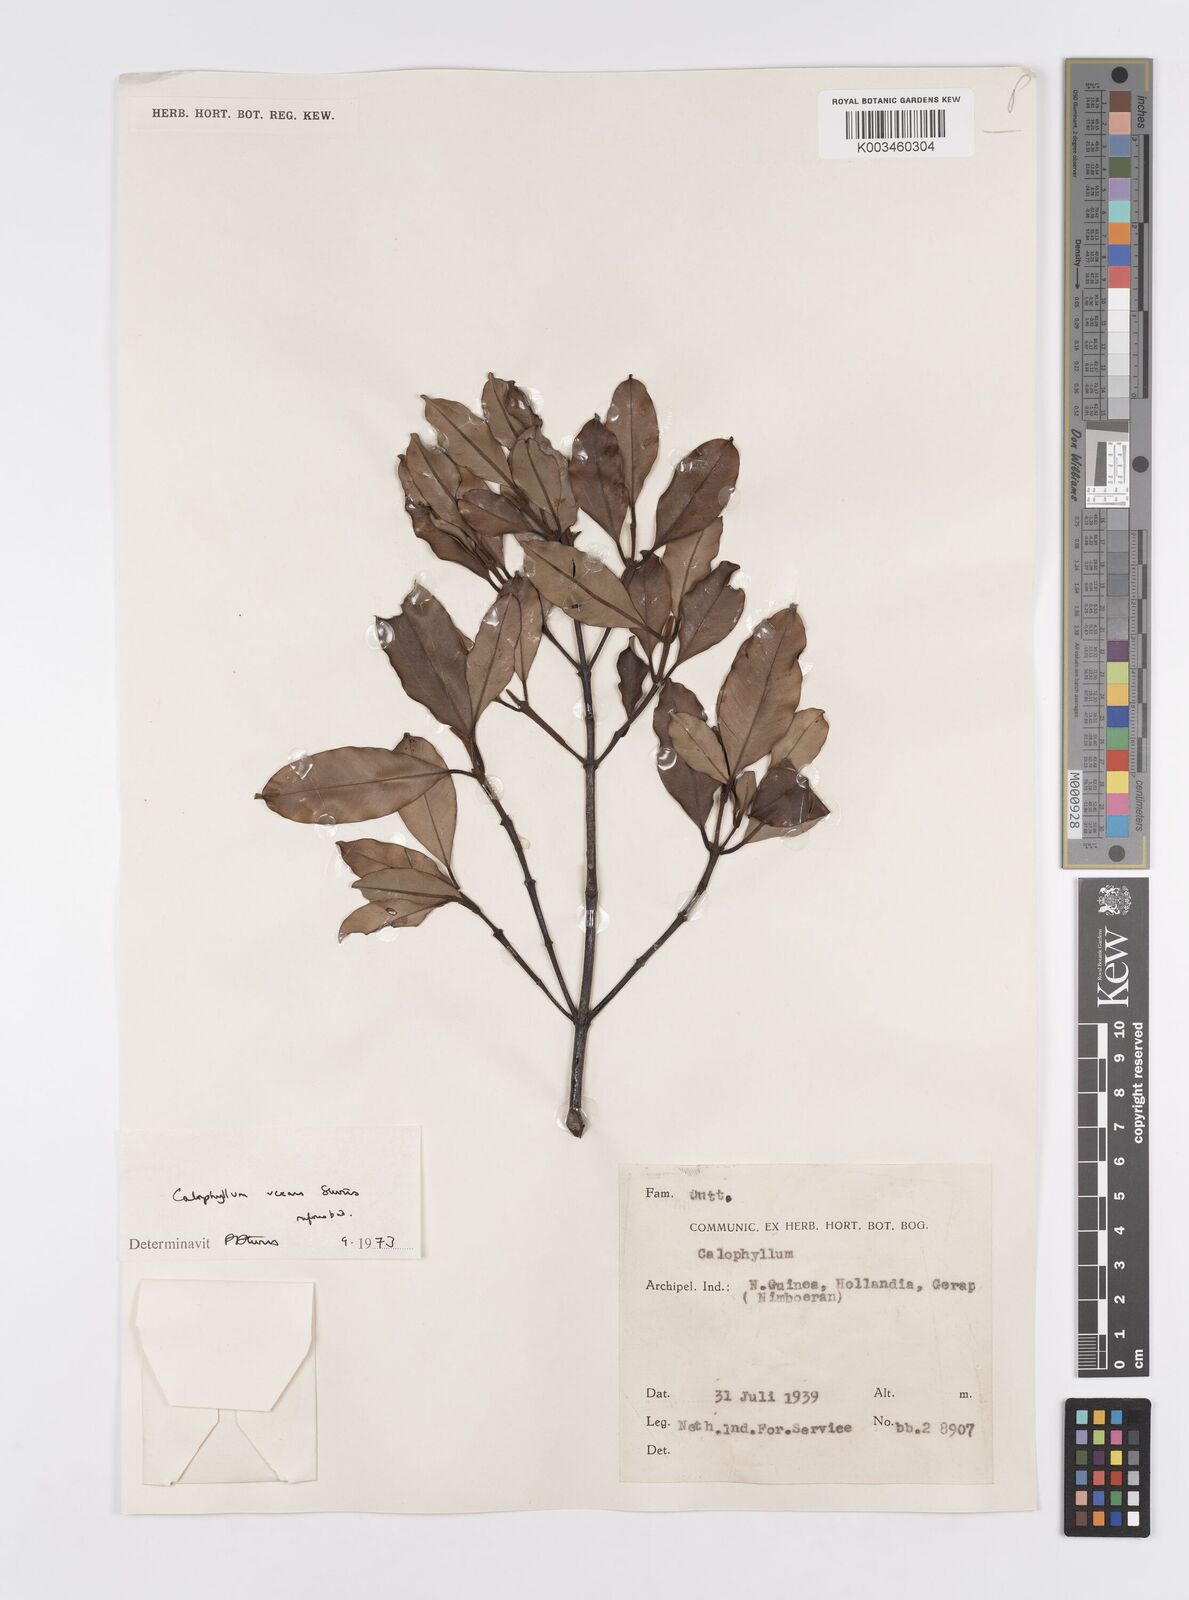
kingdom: Plantae
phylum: Tracheophyta
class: Magnoliopsida
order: Malpighiales
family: Calophyllaceae
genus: Calophyllum
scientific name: Calophyllum vexans
